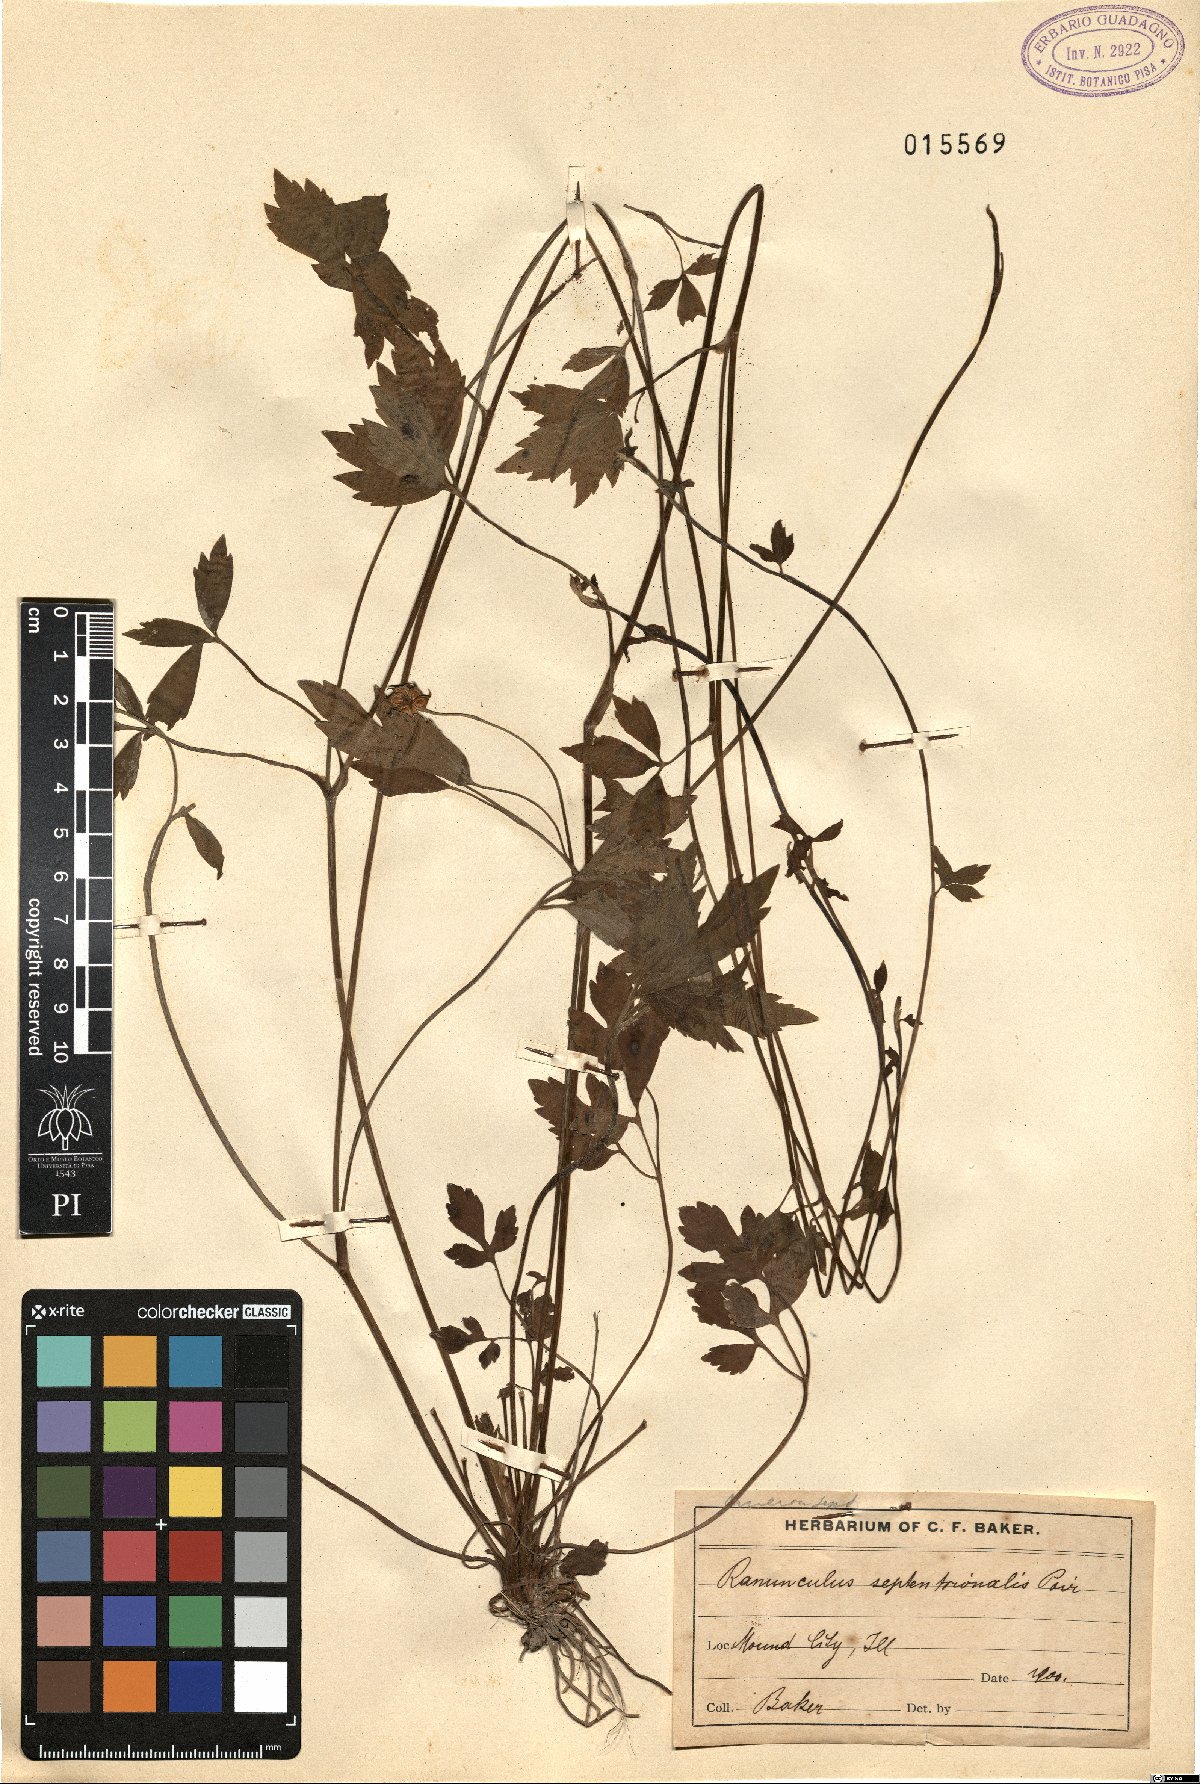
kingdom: Plantae
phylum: Tracheophyta
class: Magnoliopsida
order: Ranunculales
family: Ranunculaceae
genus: Ranunculus
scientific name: Ranunculus hispidus
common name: Bristly buttercup
